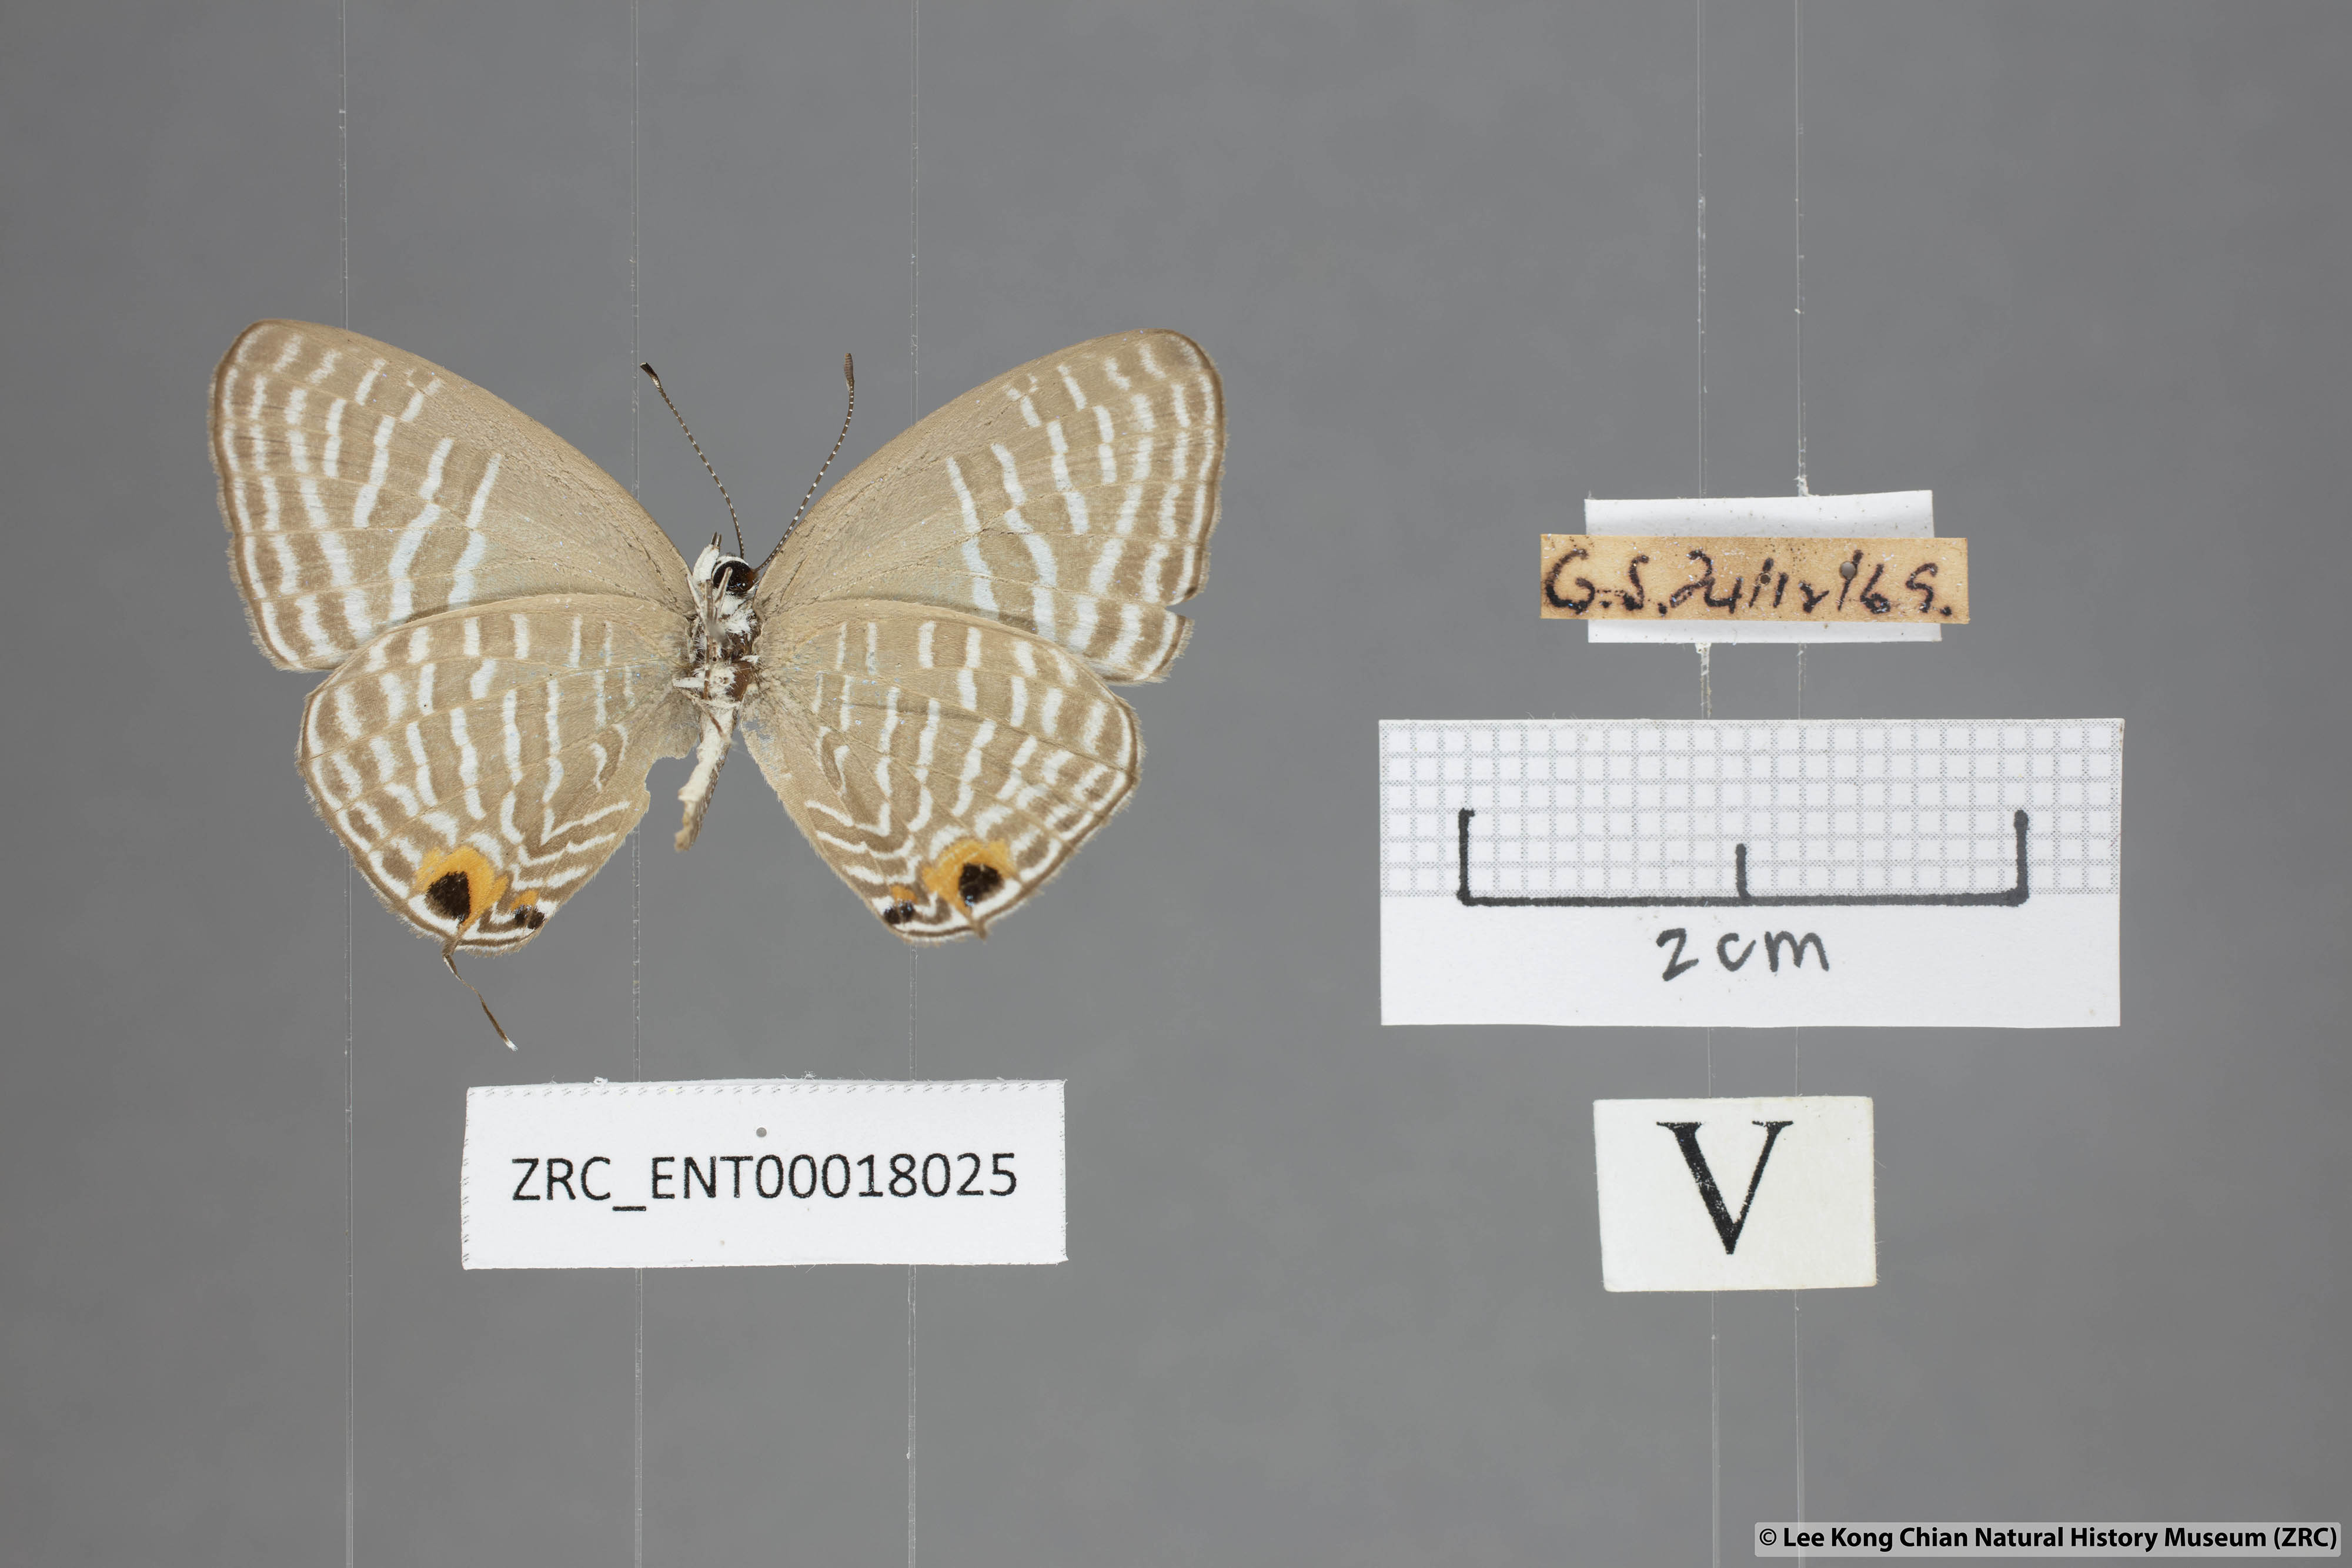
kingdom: Animalia
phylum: Arthropoda
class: Insecta
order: Lepidoptera
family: Lycaenidae
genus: Jamides
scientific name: Jamides alecto
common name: Metallic cerulean
